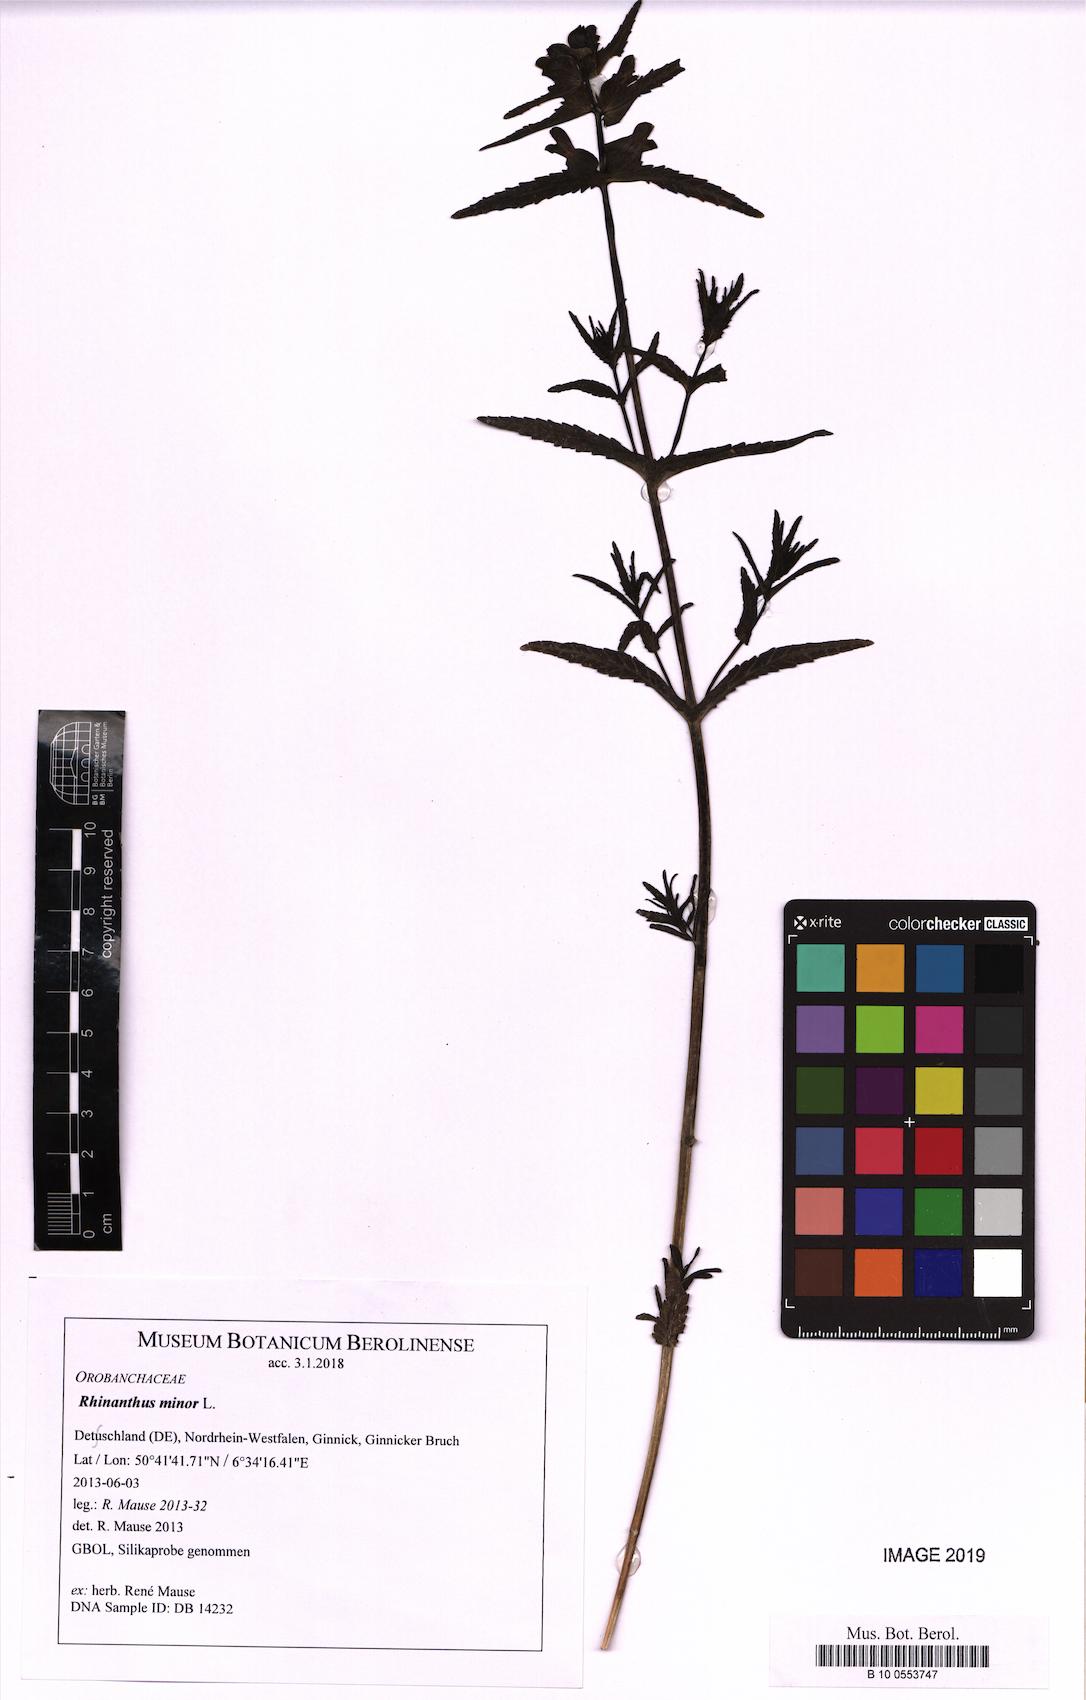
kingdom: Plantae
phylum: Tracheophyta
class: Magnoliopsida
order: Lamiales
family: Orobanchaceae
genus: Rhinanthus
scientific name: Rhinanthus minor
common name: Yellow-rattle
